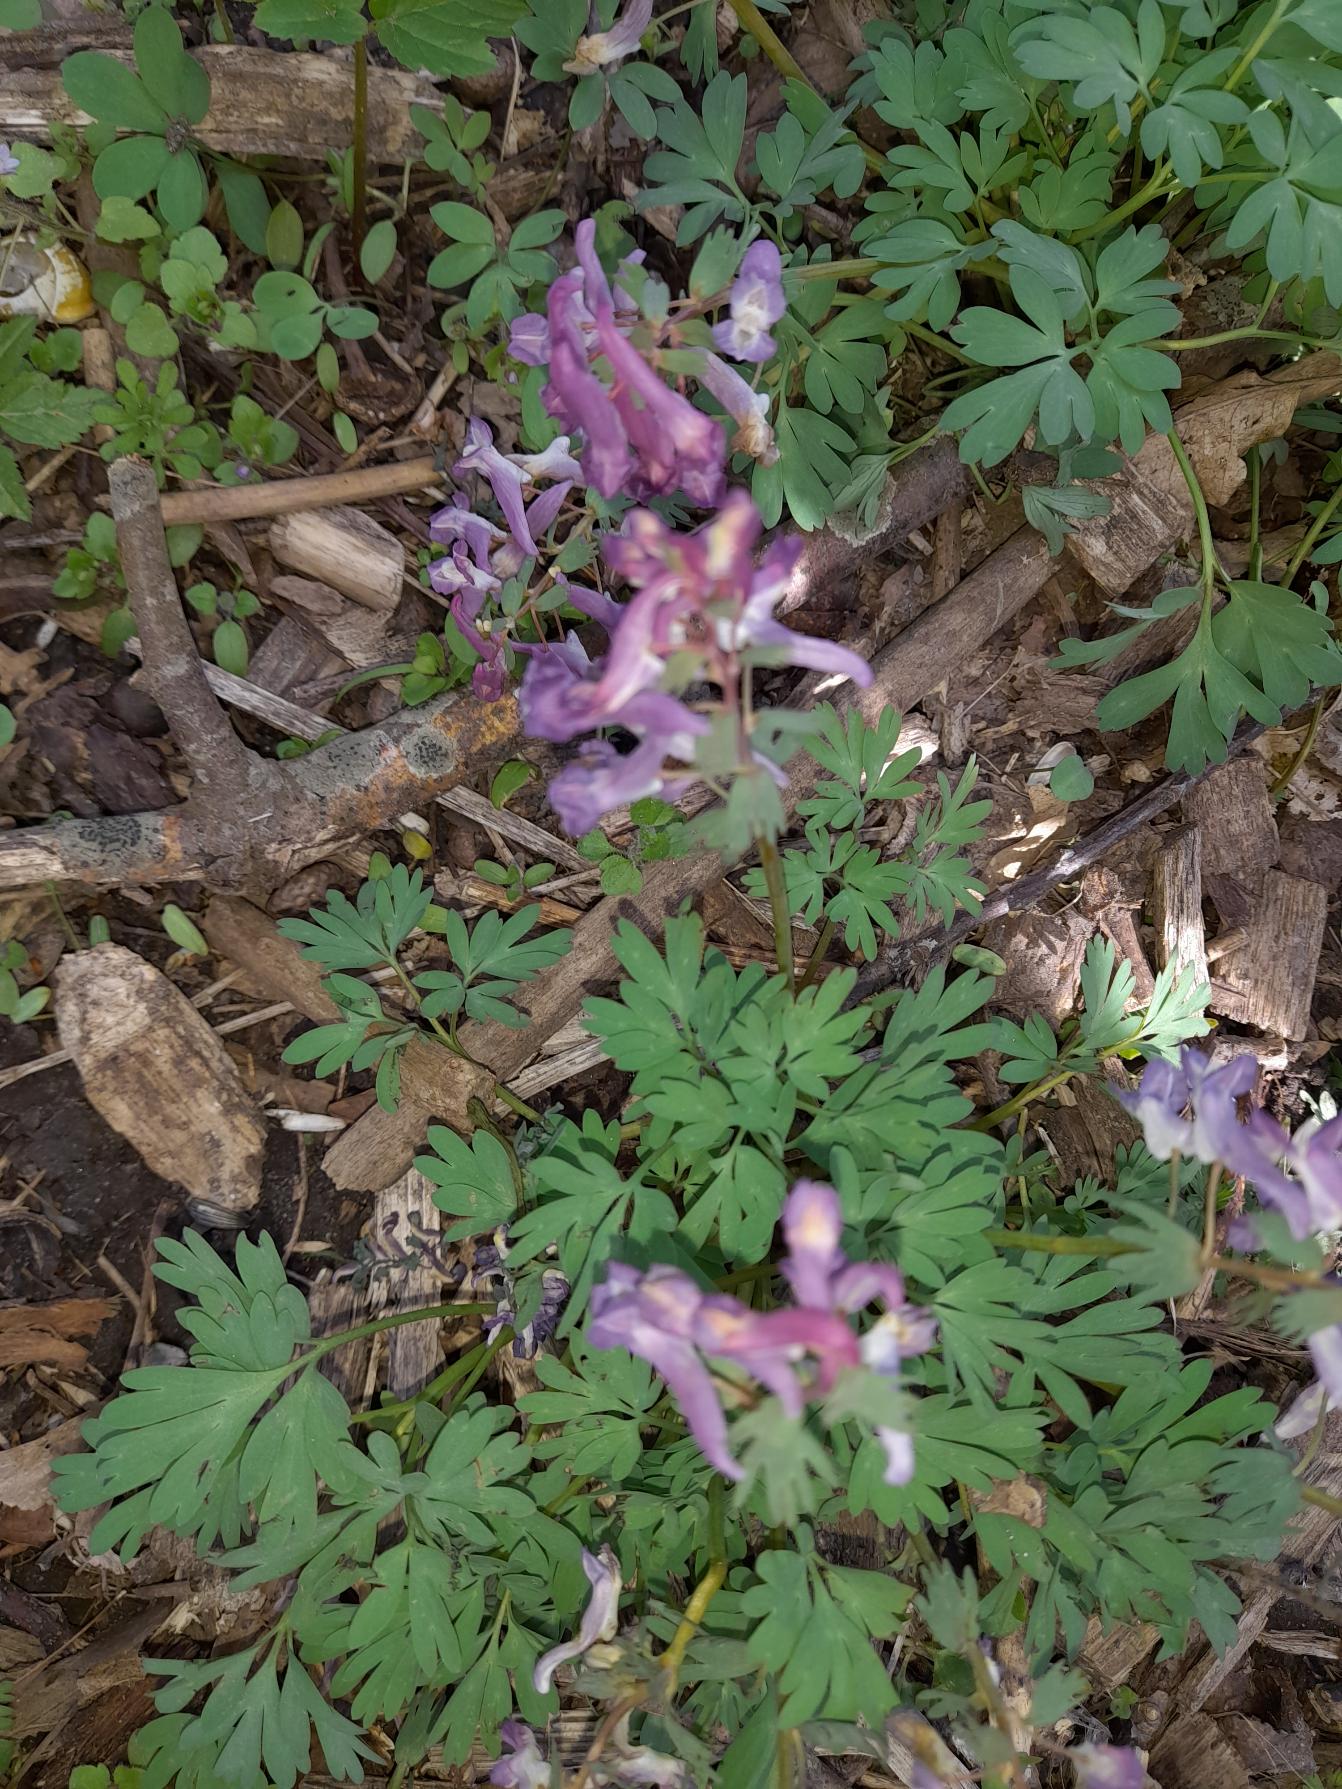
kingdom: Plantae
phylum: Tracheophyta
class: Magnoliopsida
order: Ranunculales
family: Papaveraceae
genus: Corydalis
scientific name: Corydalis solida
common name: Langstilket lærkespore
